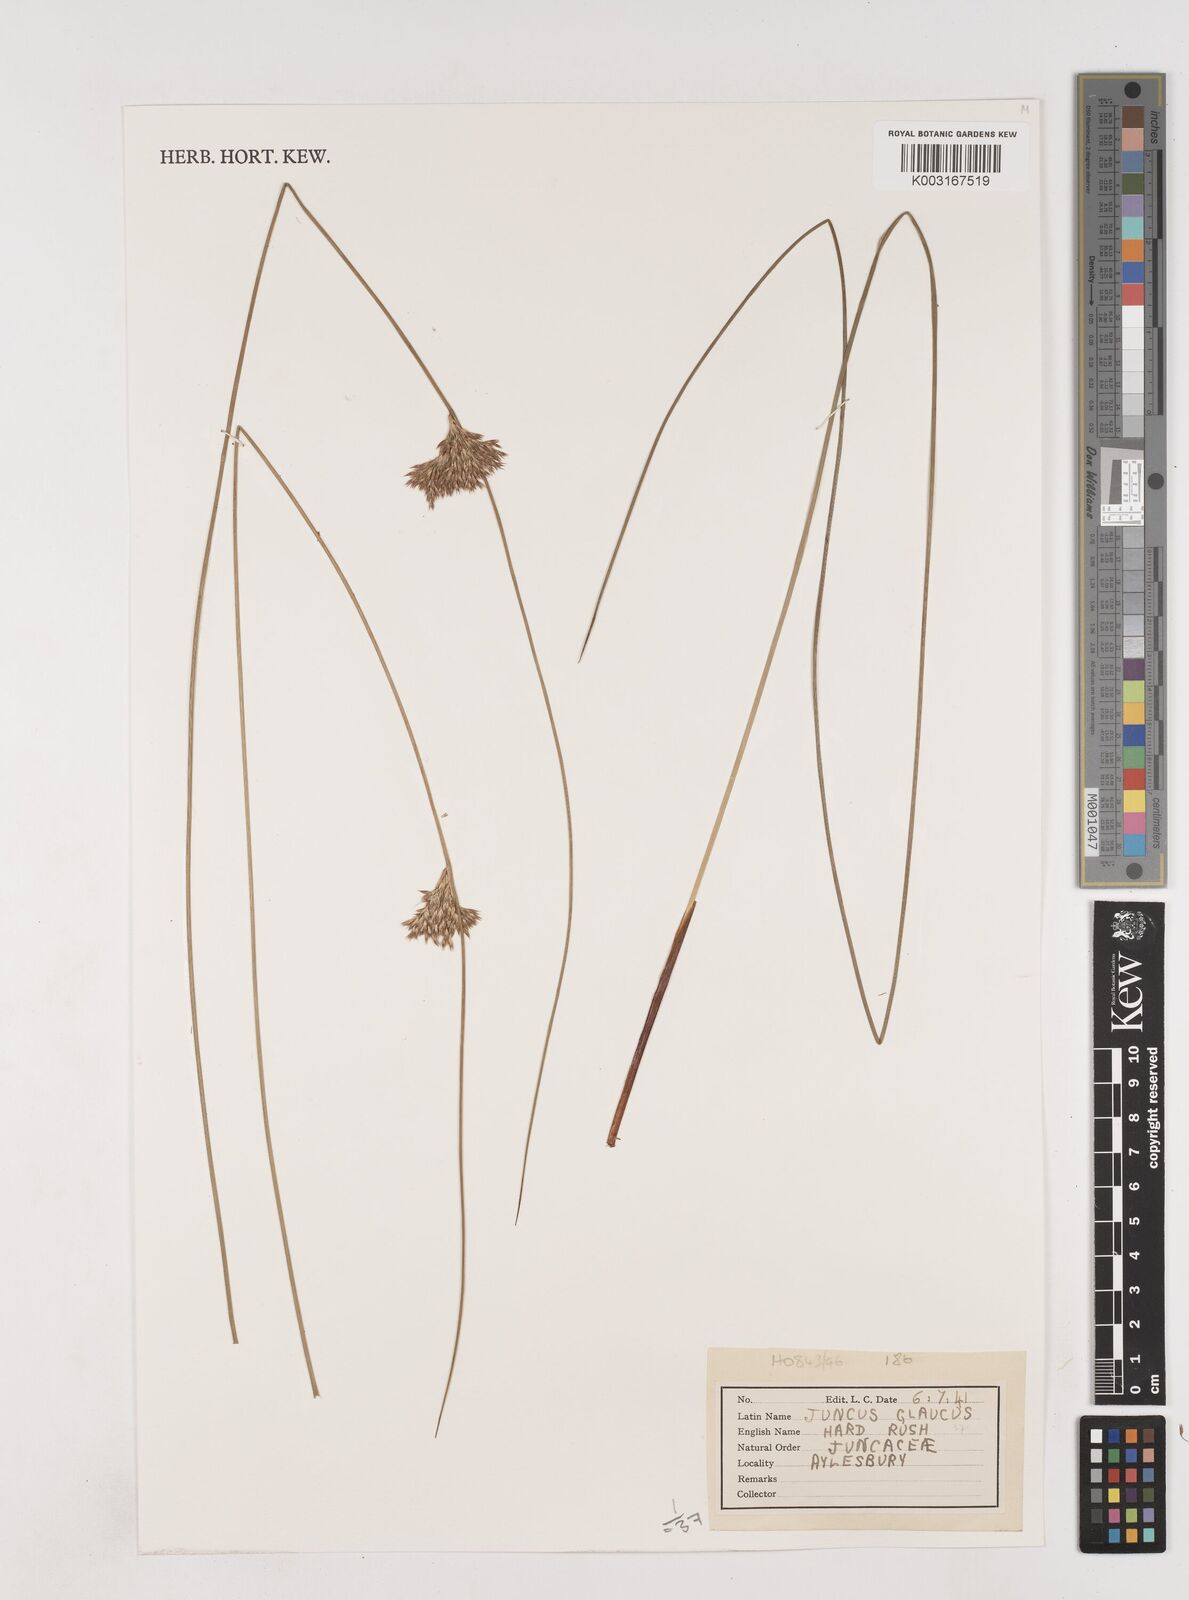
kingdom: Plantae
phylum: Tracheophyta
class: Liliopsida
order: Poales
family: Juncaceae
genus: Juncus
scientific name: Juncus inflexus
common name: Hard rush
